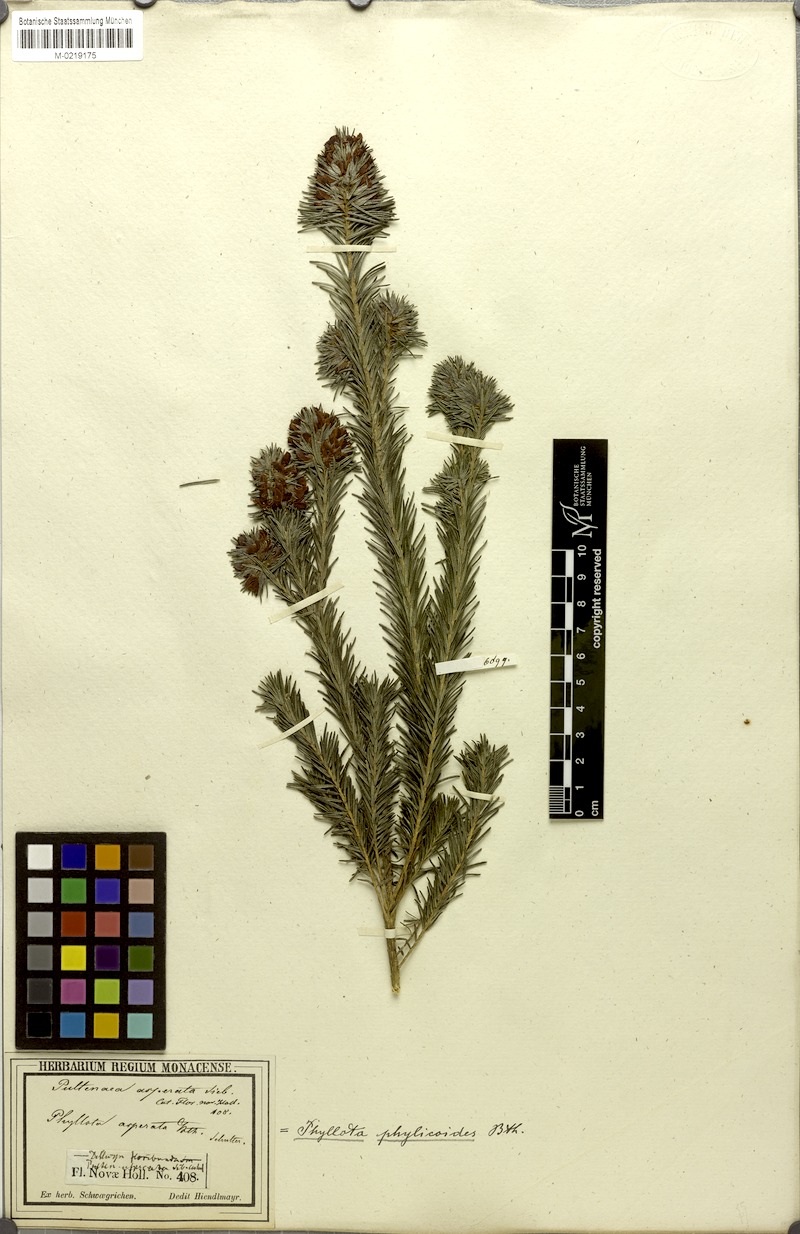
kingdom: Plantae
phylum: Tracheophyta
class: Magnoliopsida
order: Fabales
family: Fabaceae
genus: Pultenaea
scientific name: Pultenaea asperata
